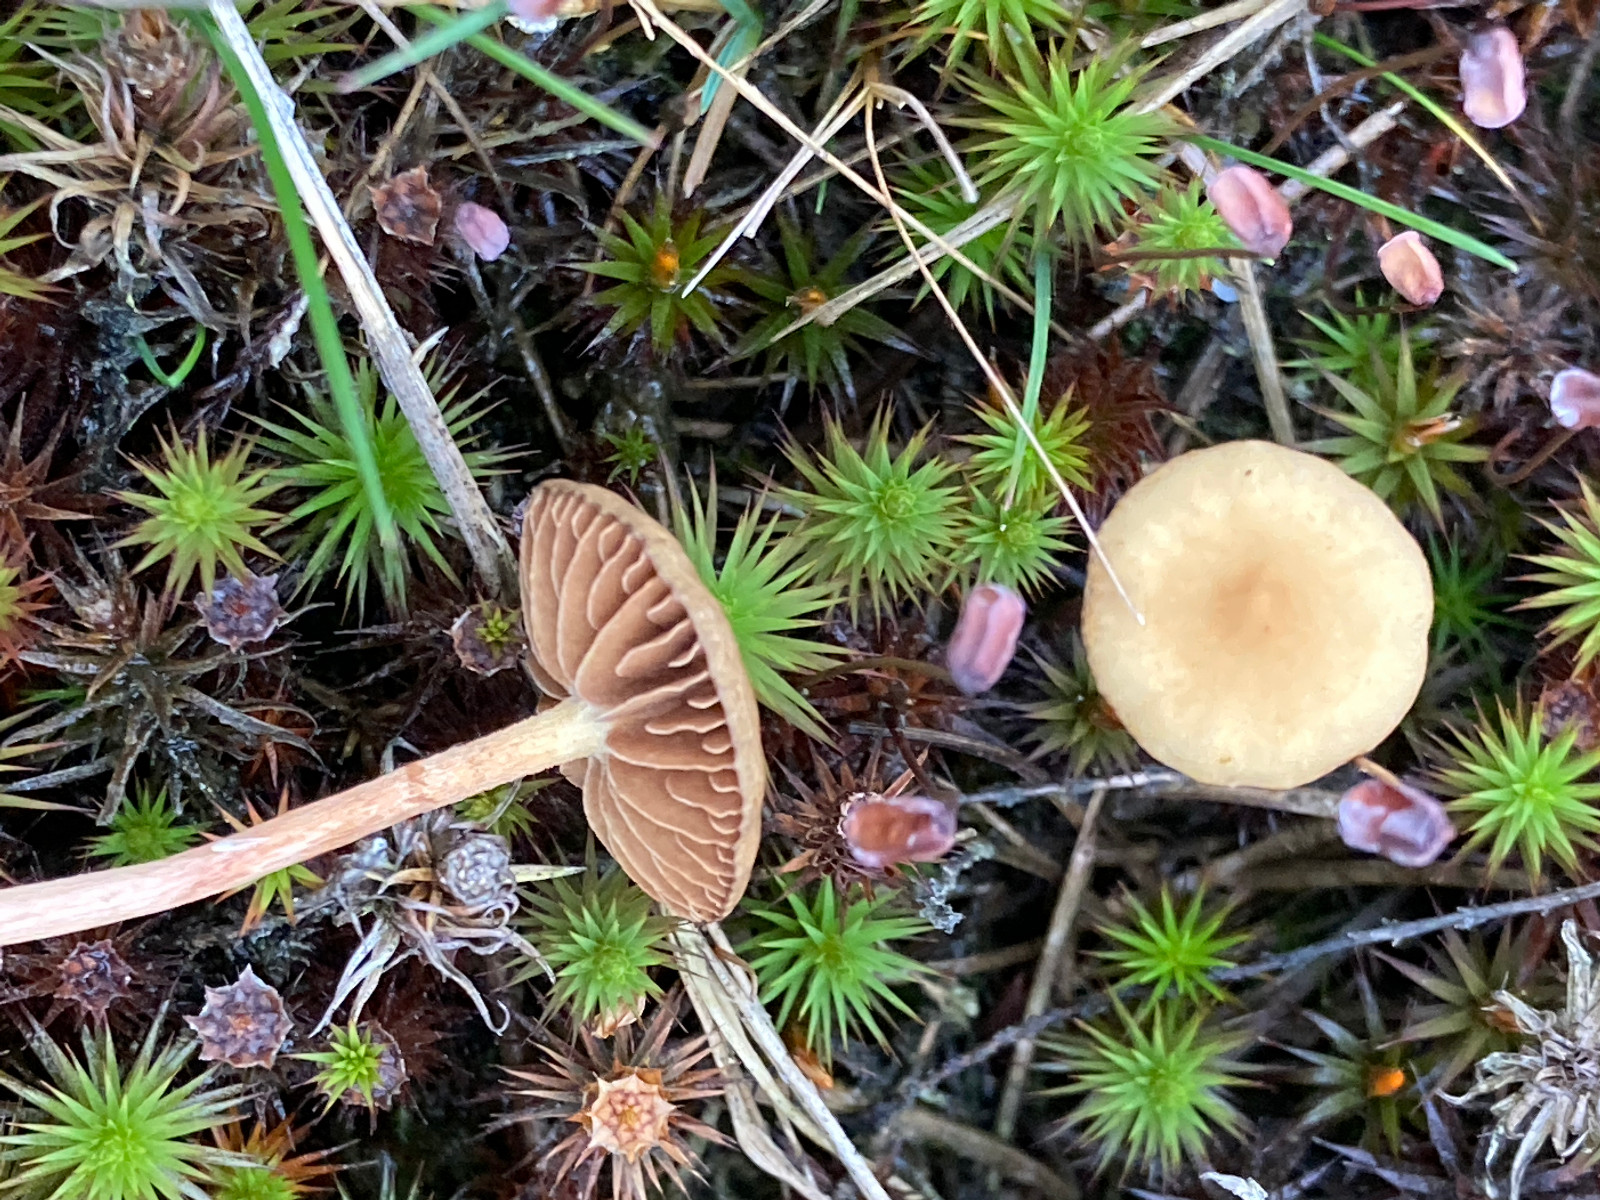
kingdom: Fungi
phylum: Basidiomycota
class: Agaricomycetes
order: Agaricales
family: Strophariaceae
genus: Bogbodia
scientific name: Bogbodia uda
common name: tørve-svovlhat
